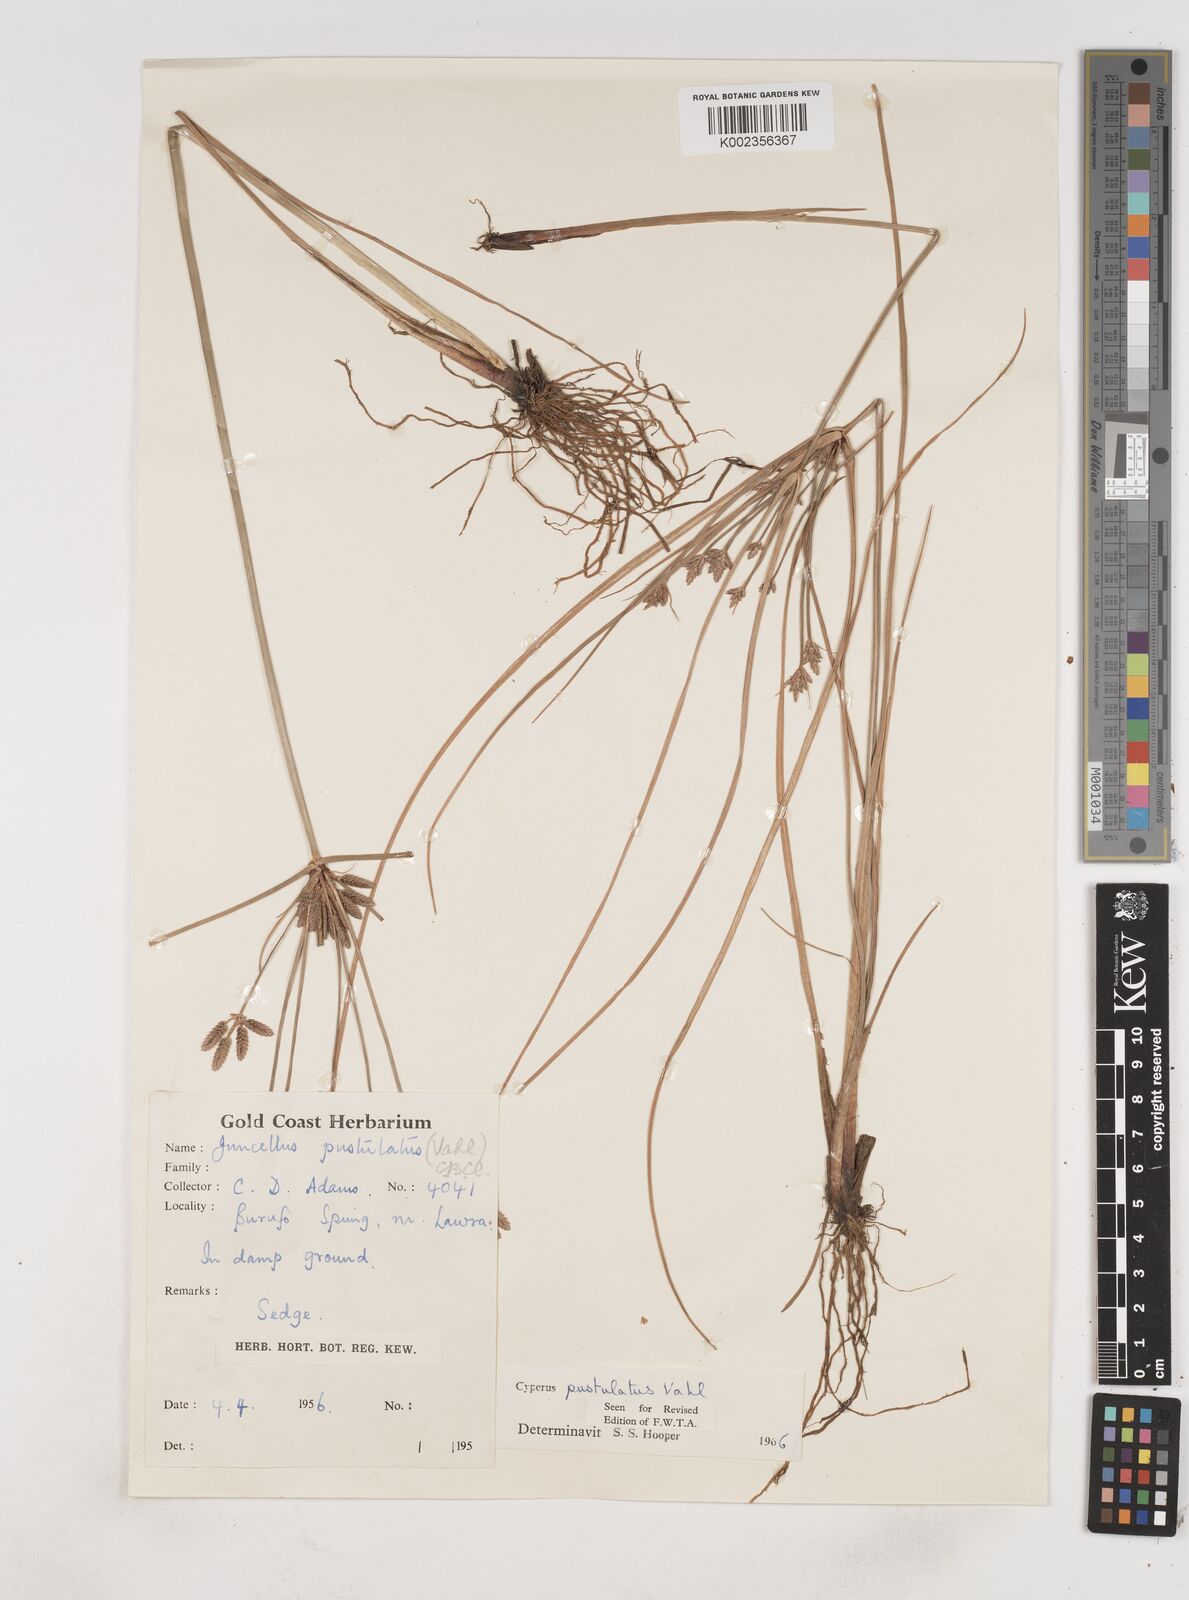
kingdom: Plantae
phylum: Tracheophyta
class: Liliopsida
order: Poales
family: Cyperaceae
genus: Cyperus
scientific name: Cyperus pustulatus
